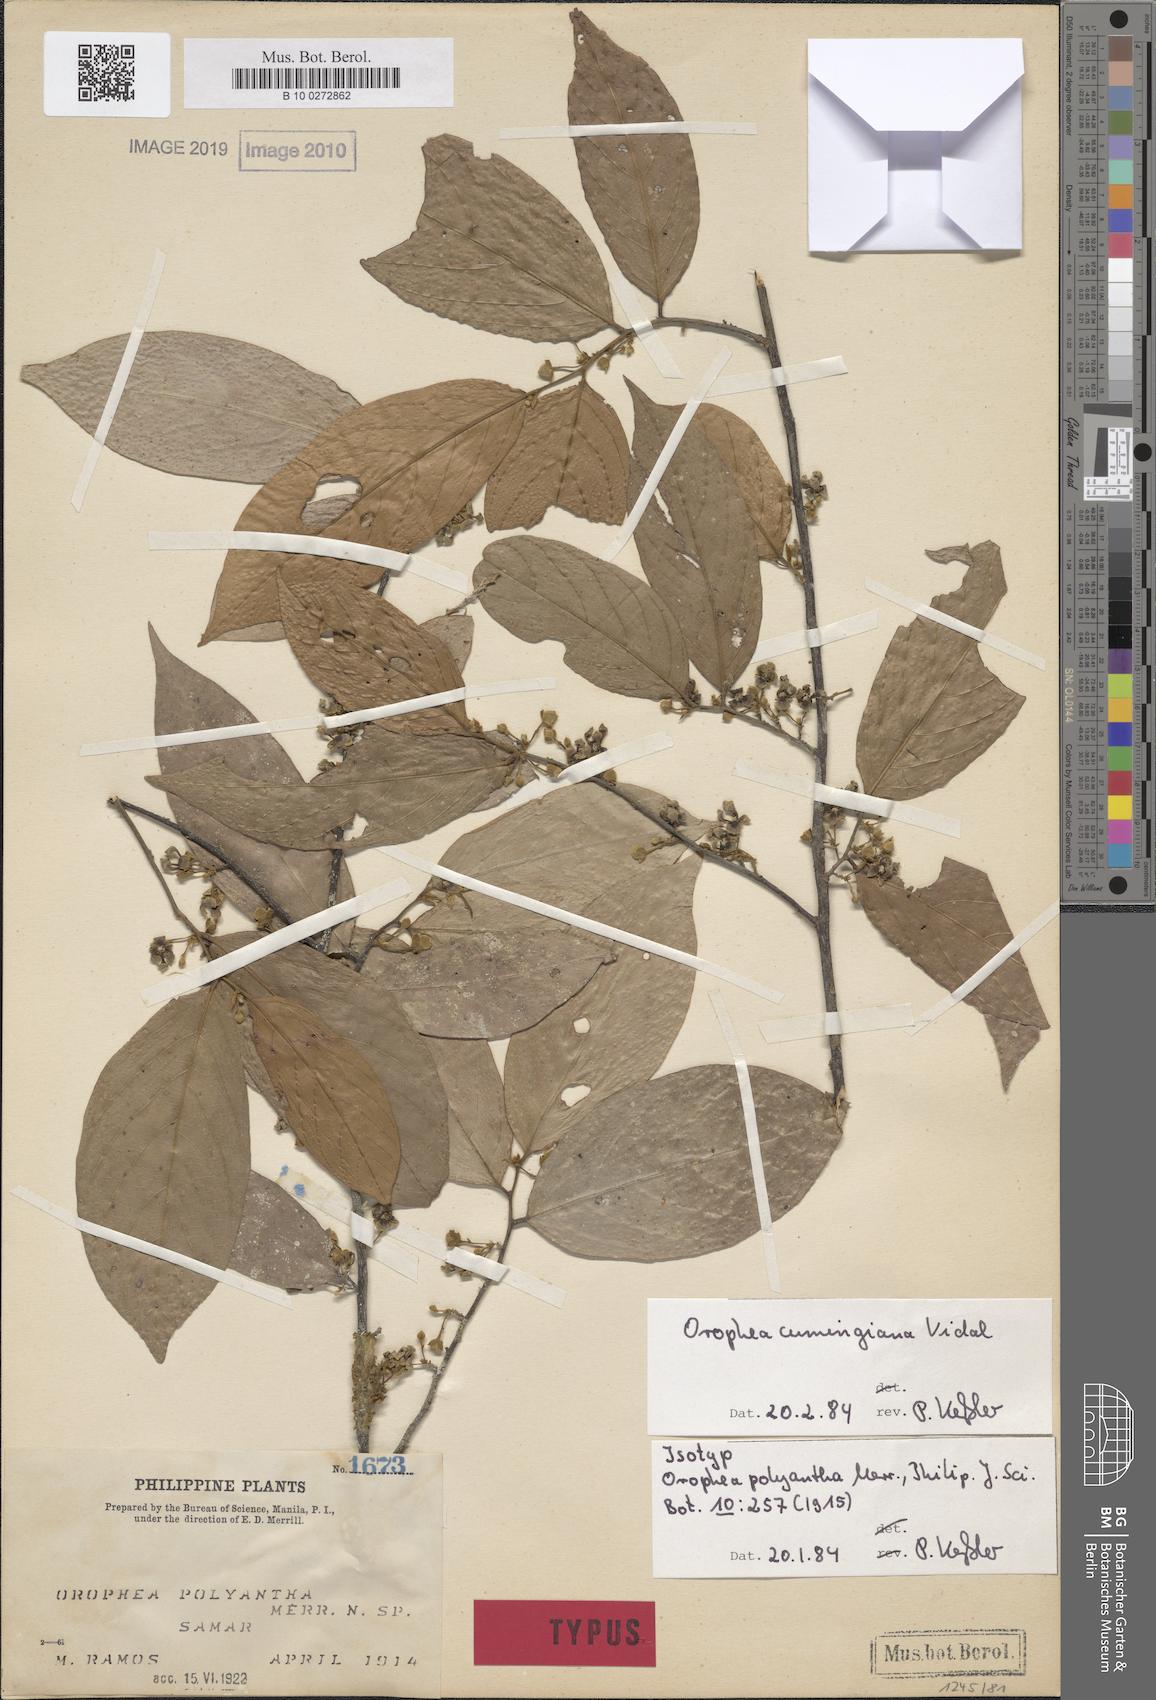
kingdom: Plantae
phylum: Tracheophyta
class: Magnoliopsida
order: Magnoliales
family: Annonaceae
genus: Orophea
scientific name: Orophea cumingiana
